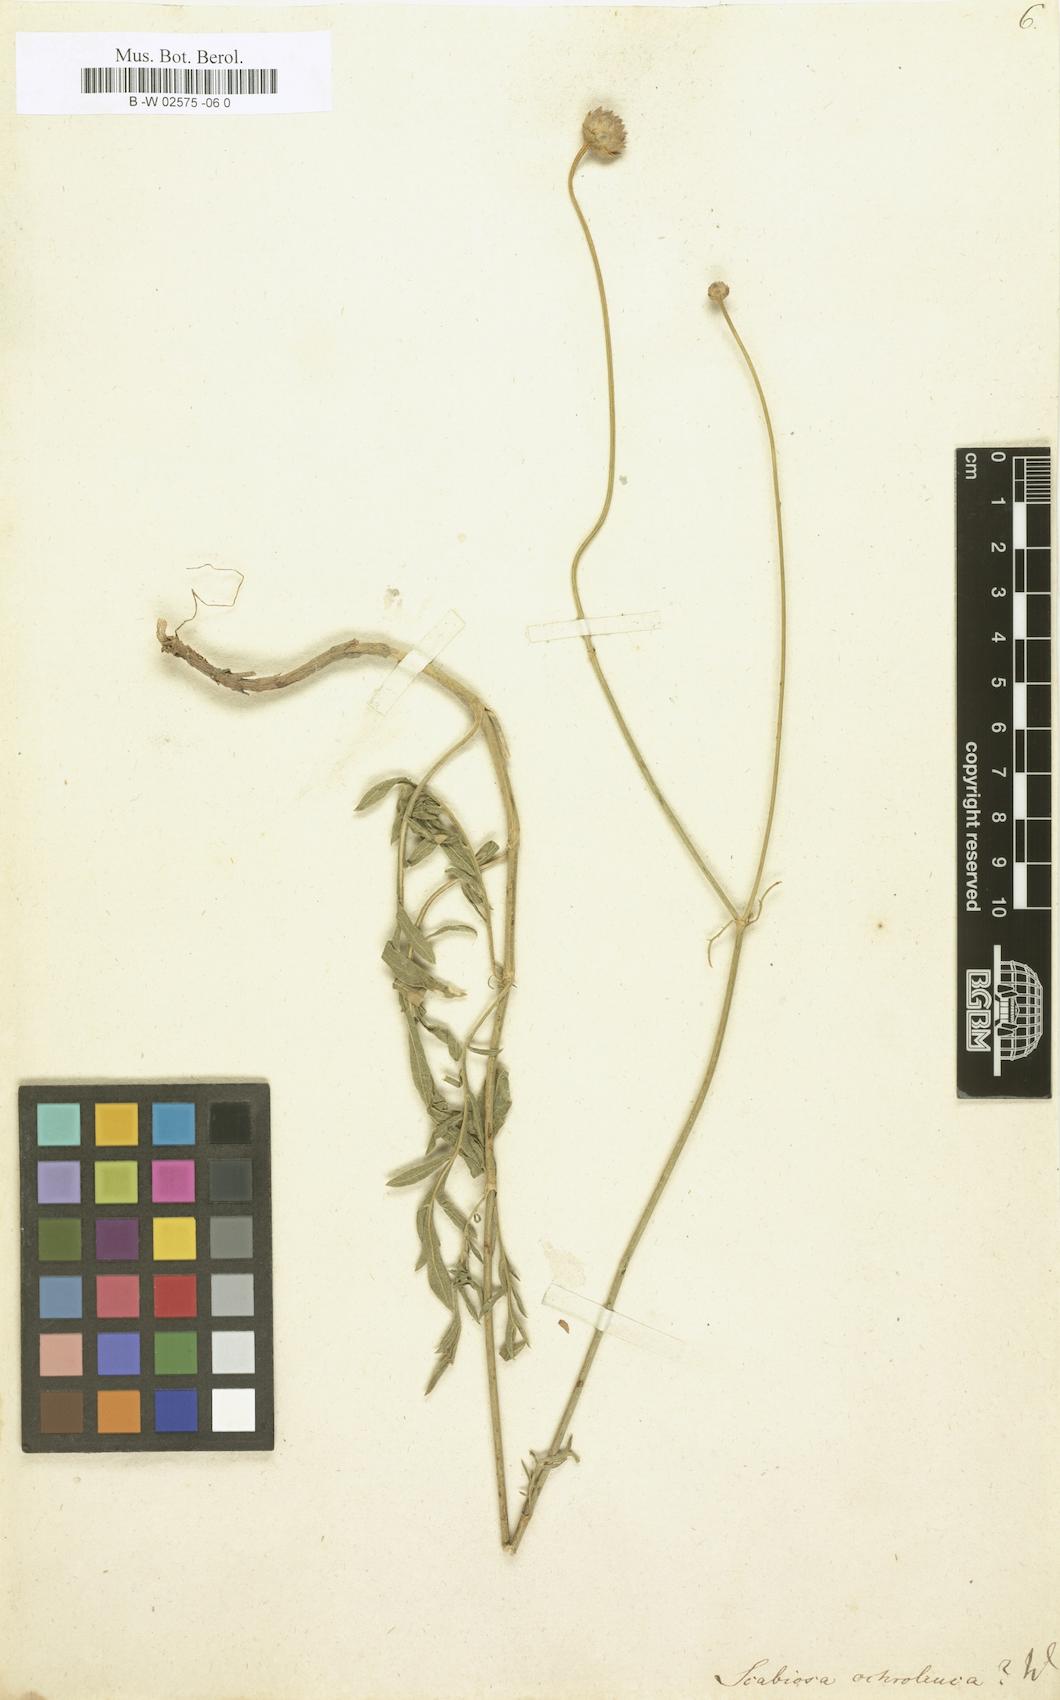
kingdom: Plantae
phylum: Tracheophyta
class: Magnoliopsida
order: Dipsacales
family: Caprifoliaceae
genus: Scabiosa
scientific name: Scabiosa ochroleuca
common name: Cream pincushions
